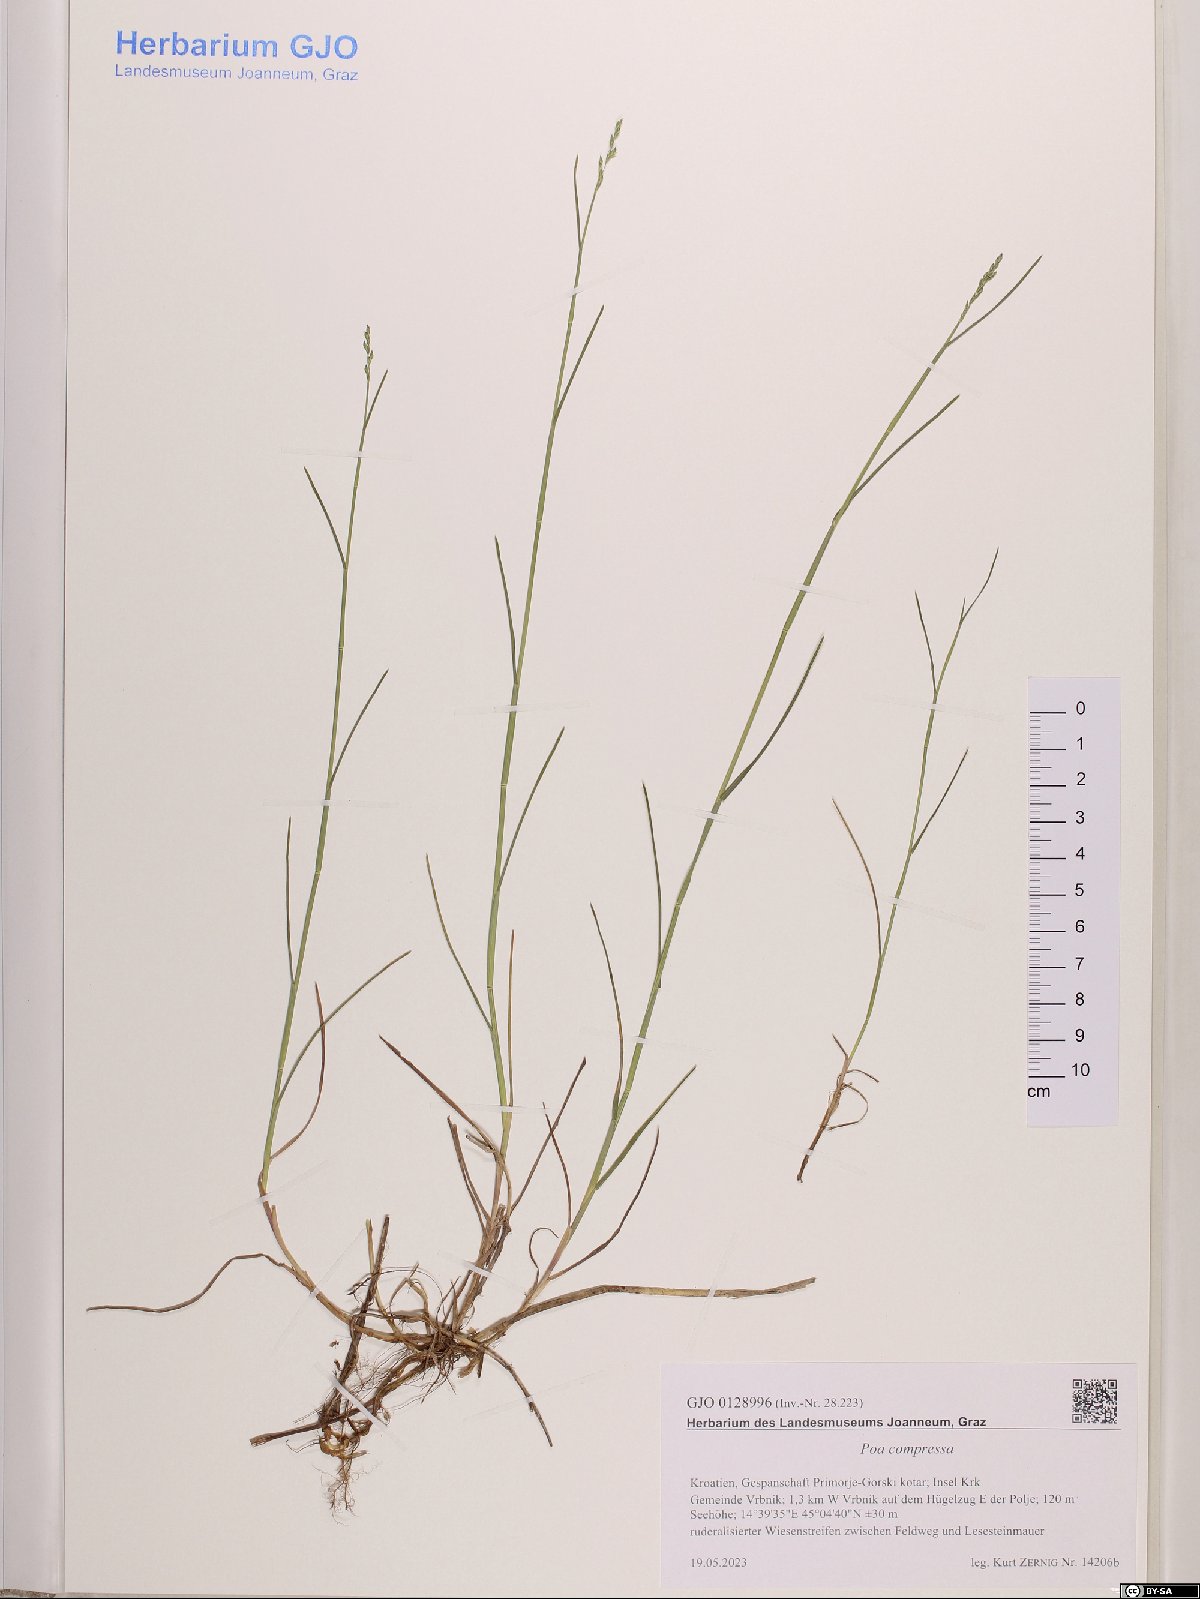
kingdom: Plantae
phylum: Tracheophyta
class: Liliopsida
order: Poales
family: Poaceae
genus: Poa
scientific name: Poa compressa
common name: Canada bluegrass
